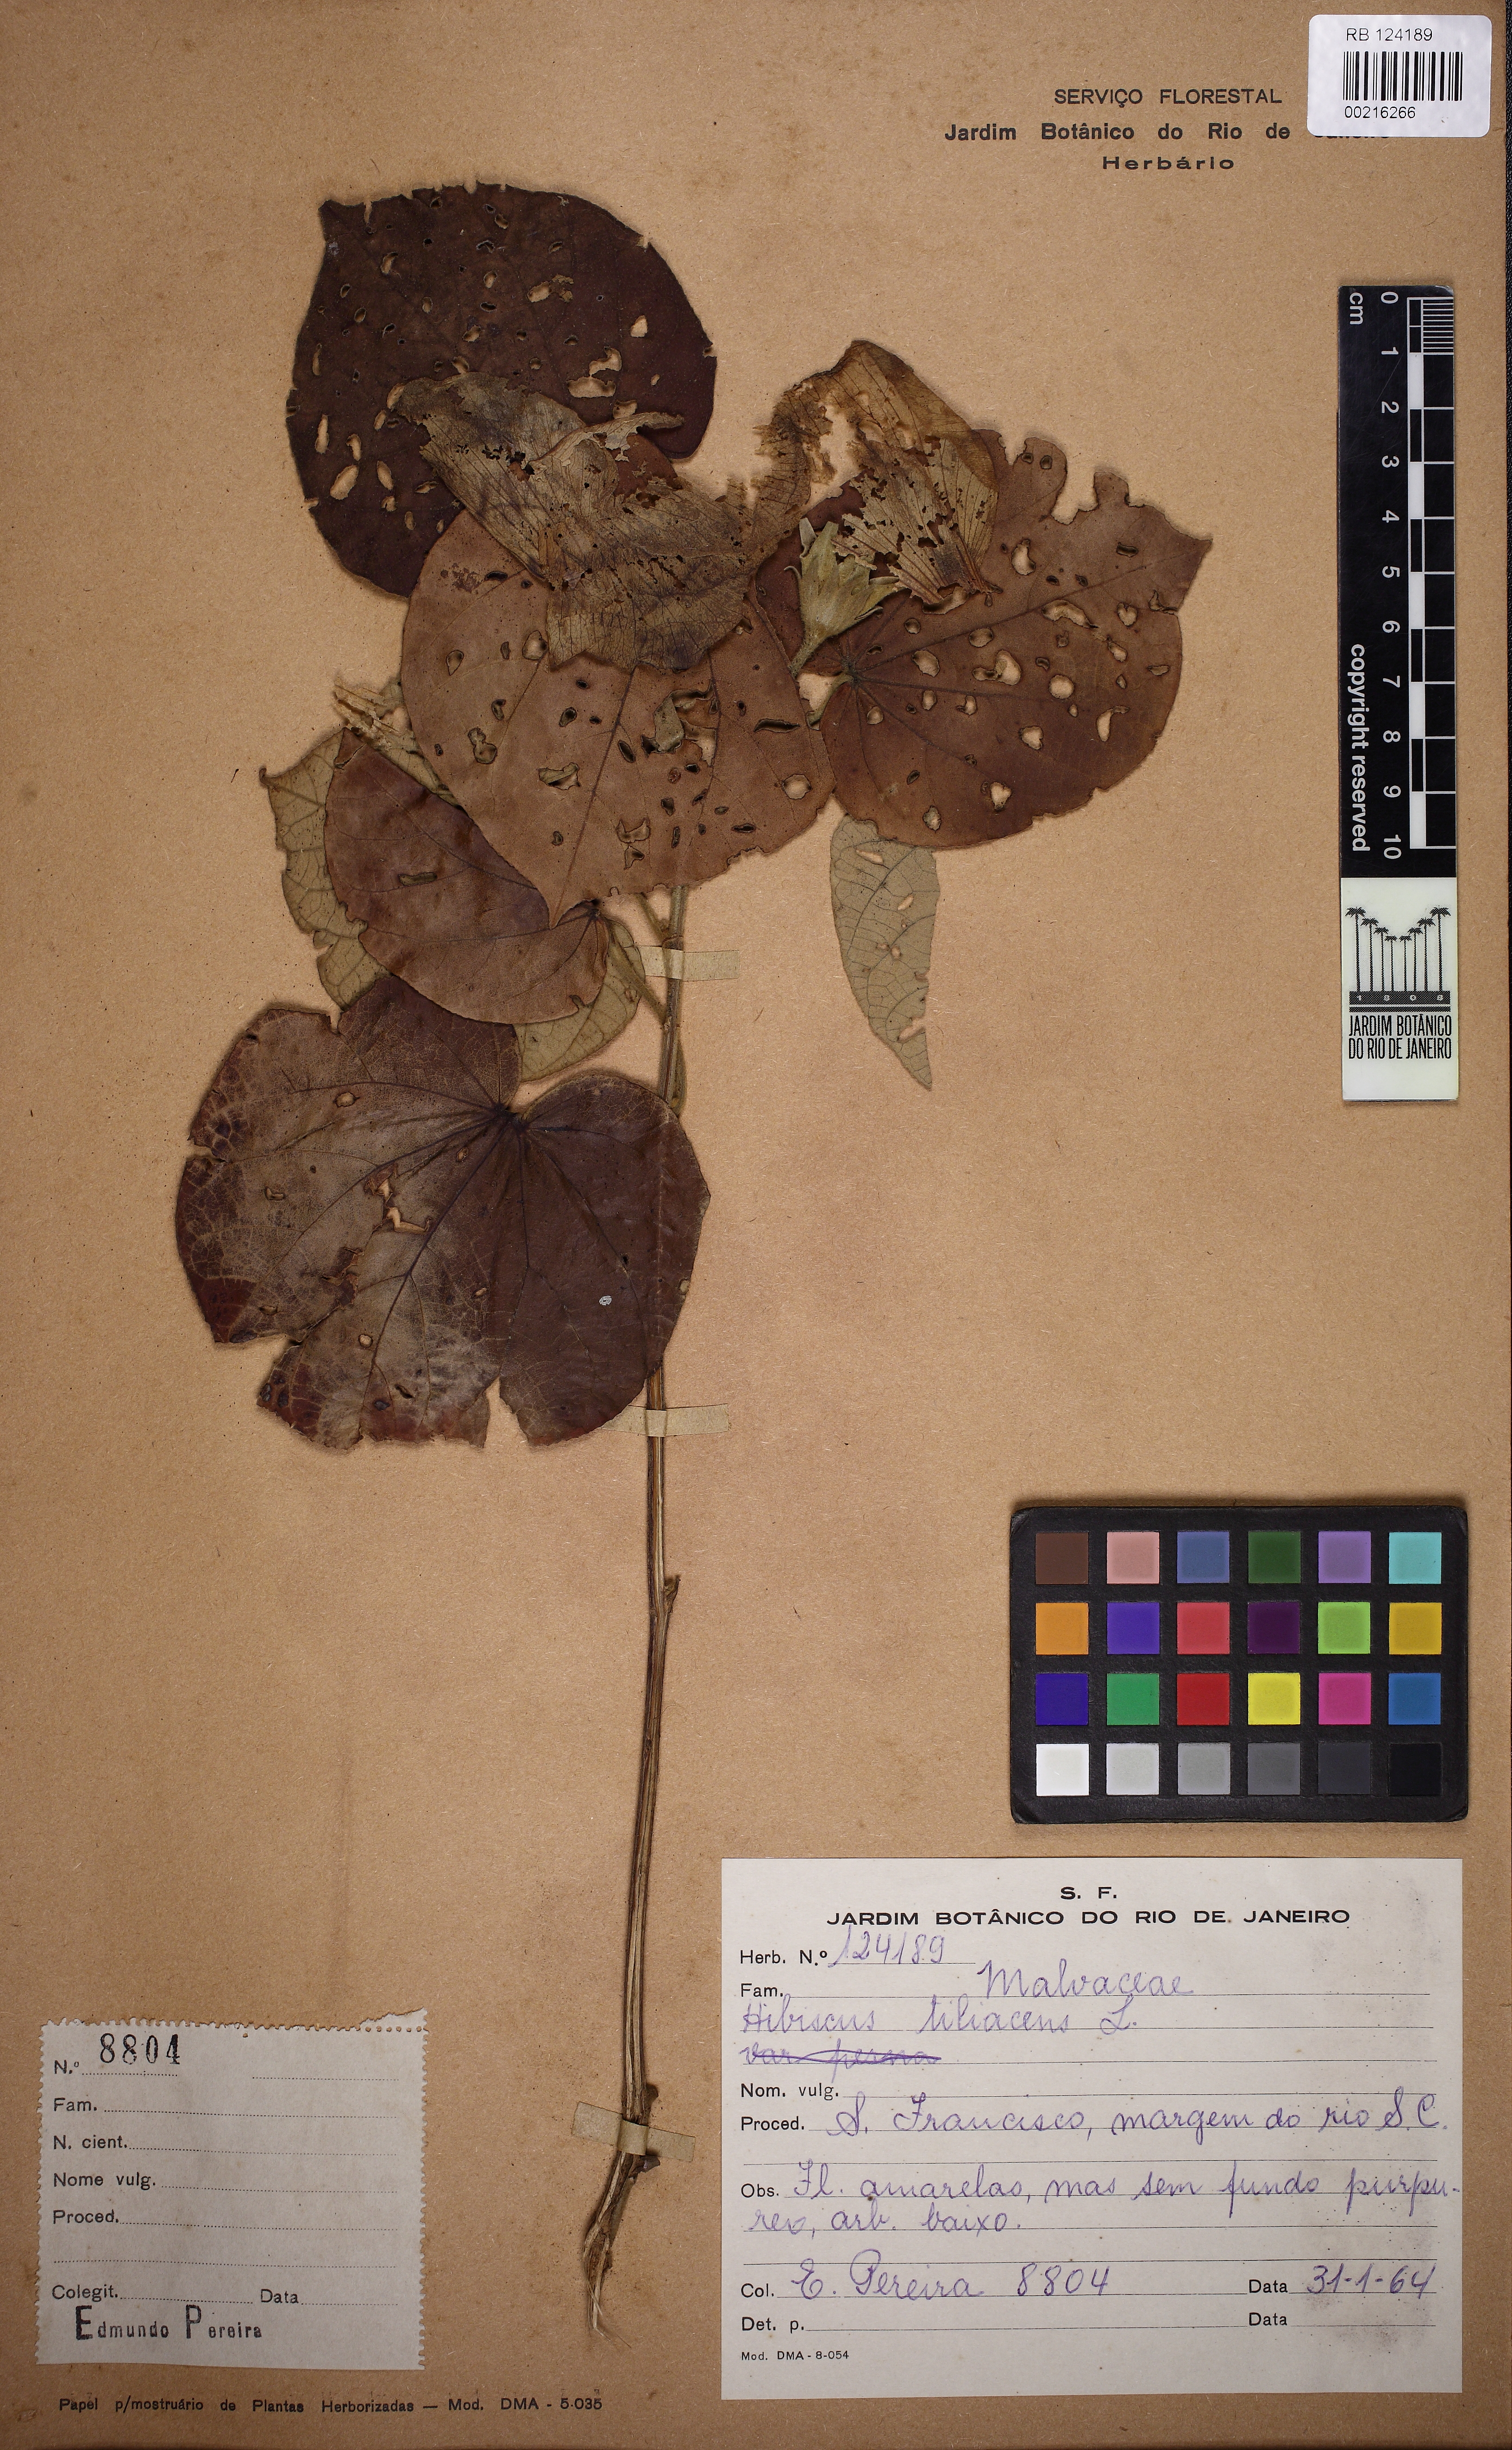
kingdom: Plantae
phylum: Tracheophyta
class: Magnoliopsida
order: Malvales
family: Malvaceae
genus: Talipariti
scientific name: Talipariti tiliaceum
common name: Sea hibiscus
